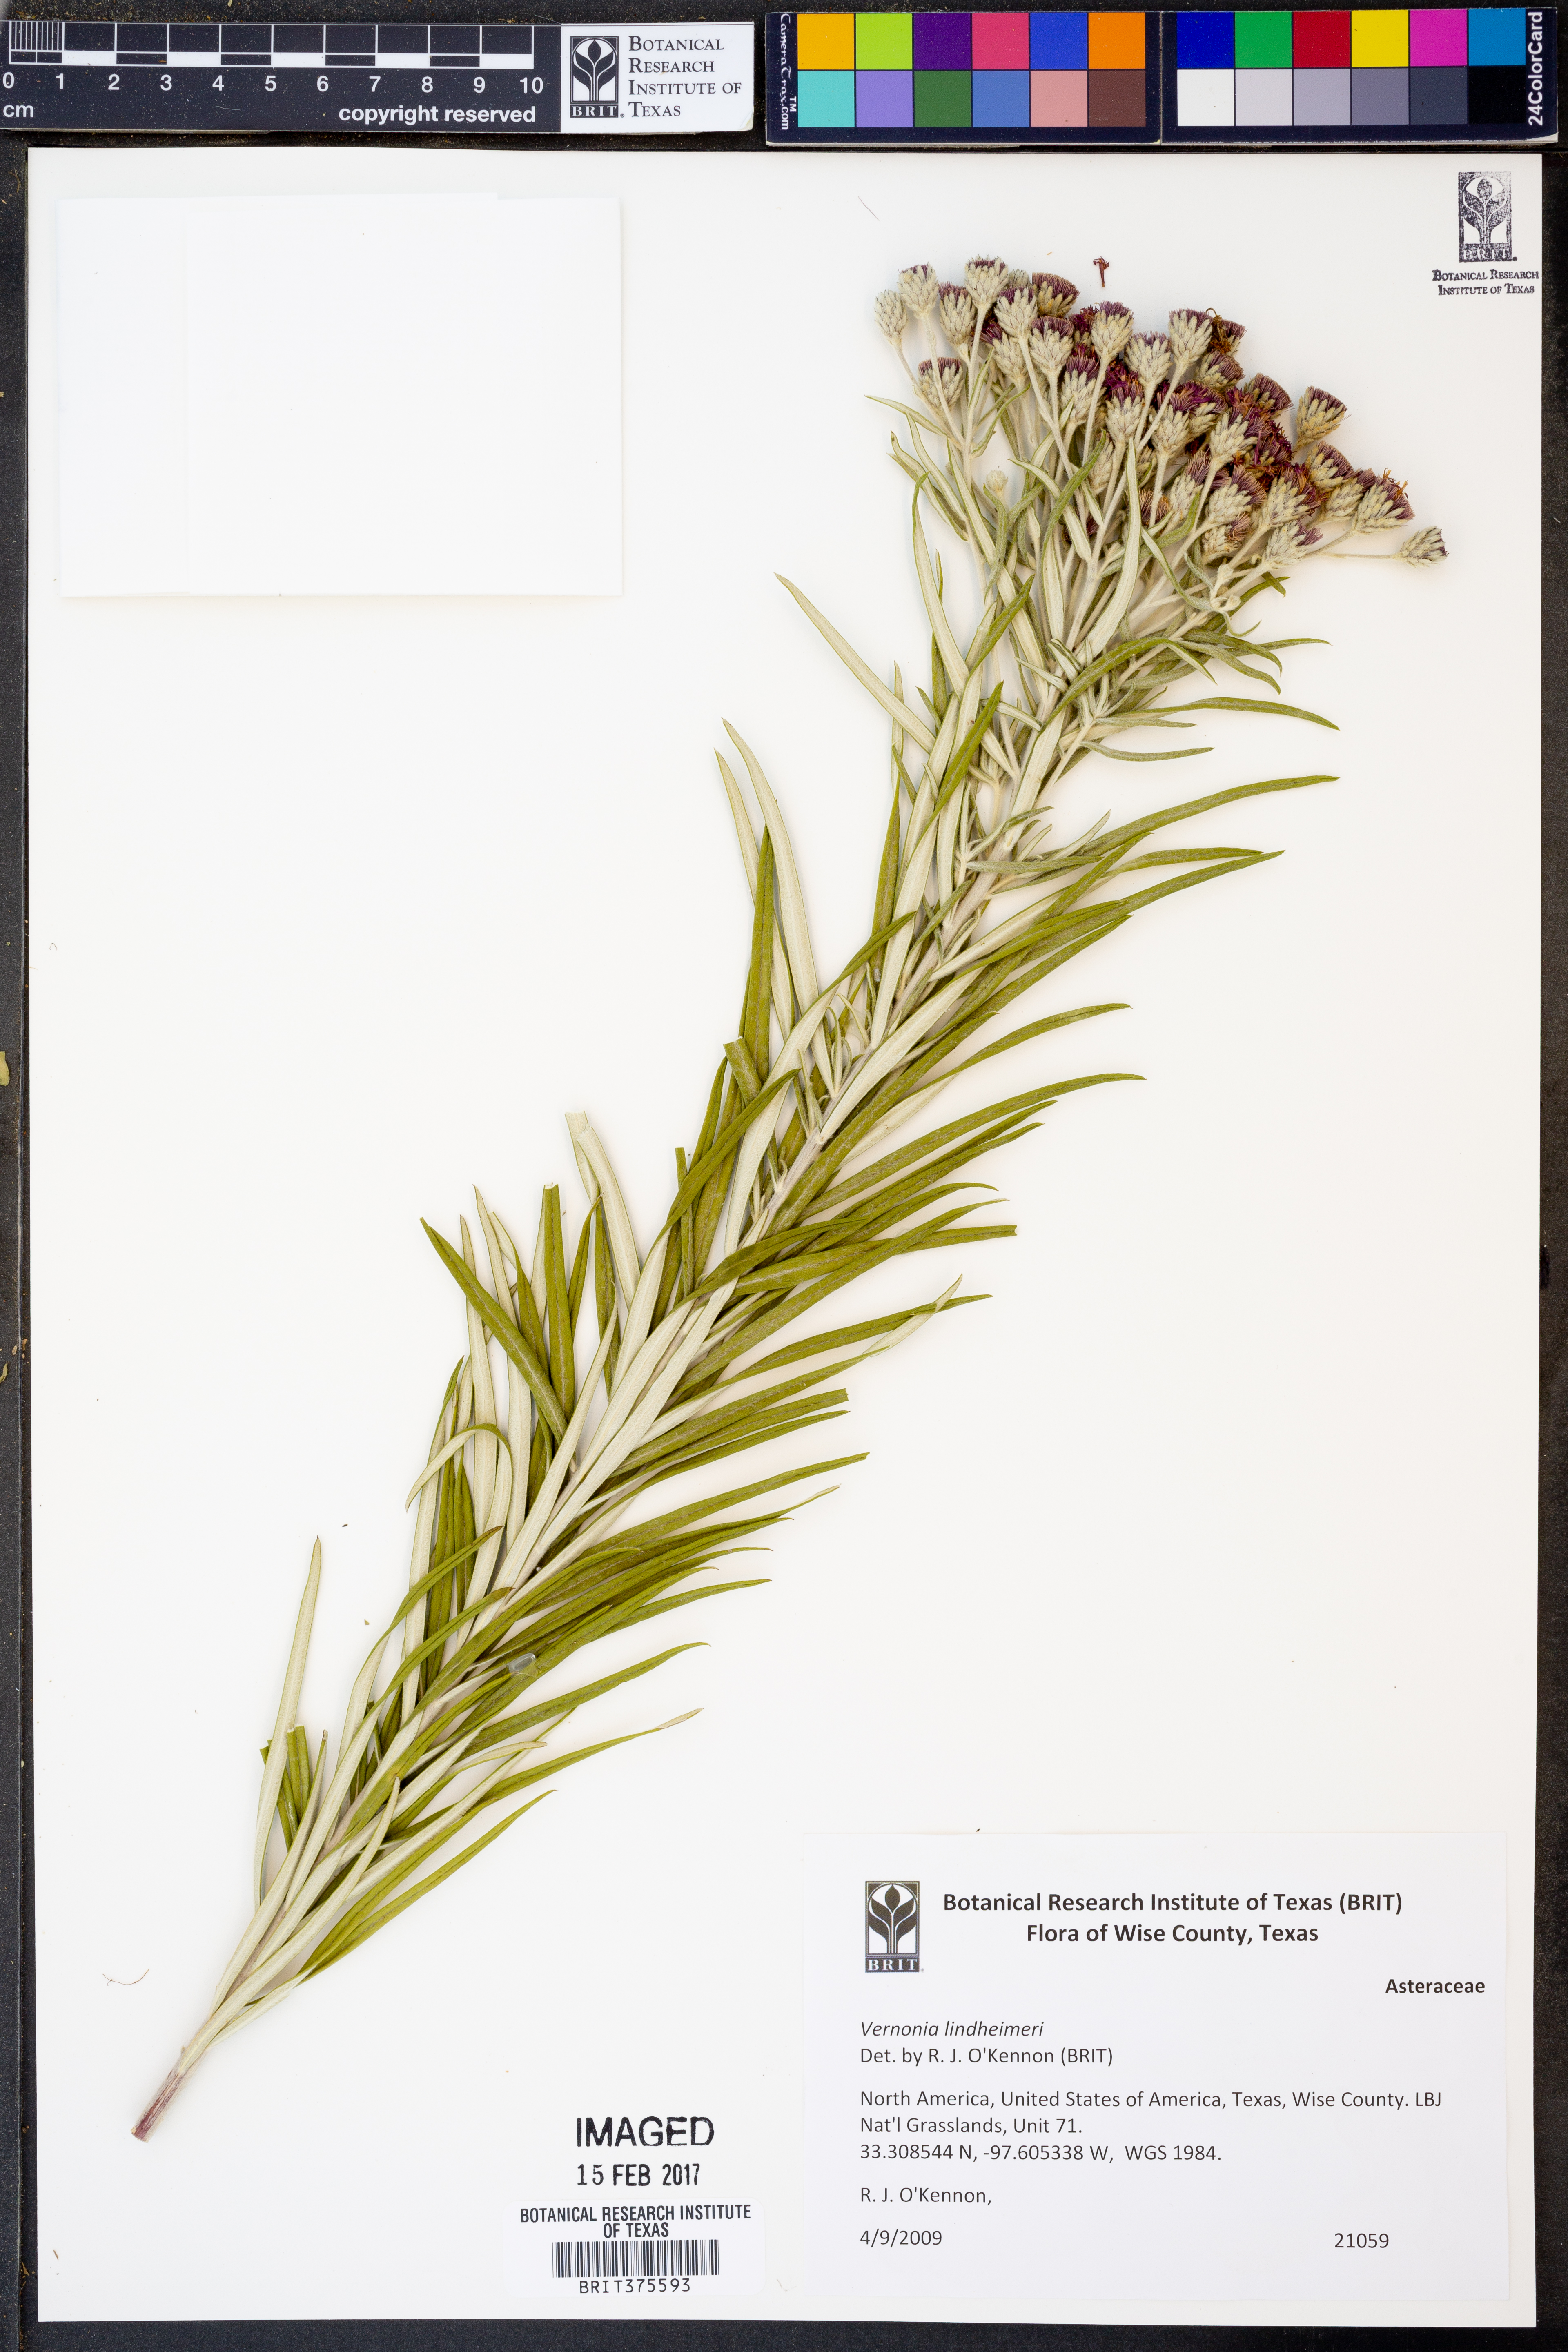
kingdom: Plantae
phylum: Tracheophyta
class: Magnoliopsida
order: Asterales
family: Asteraceae
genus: Vernonia
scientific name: Vernonia lindheimeri
